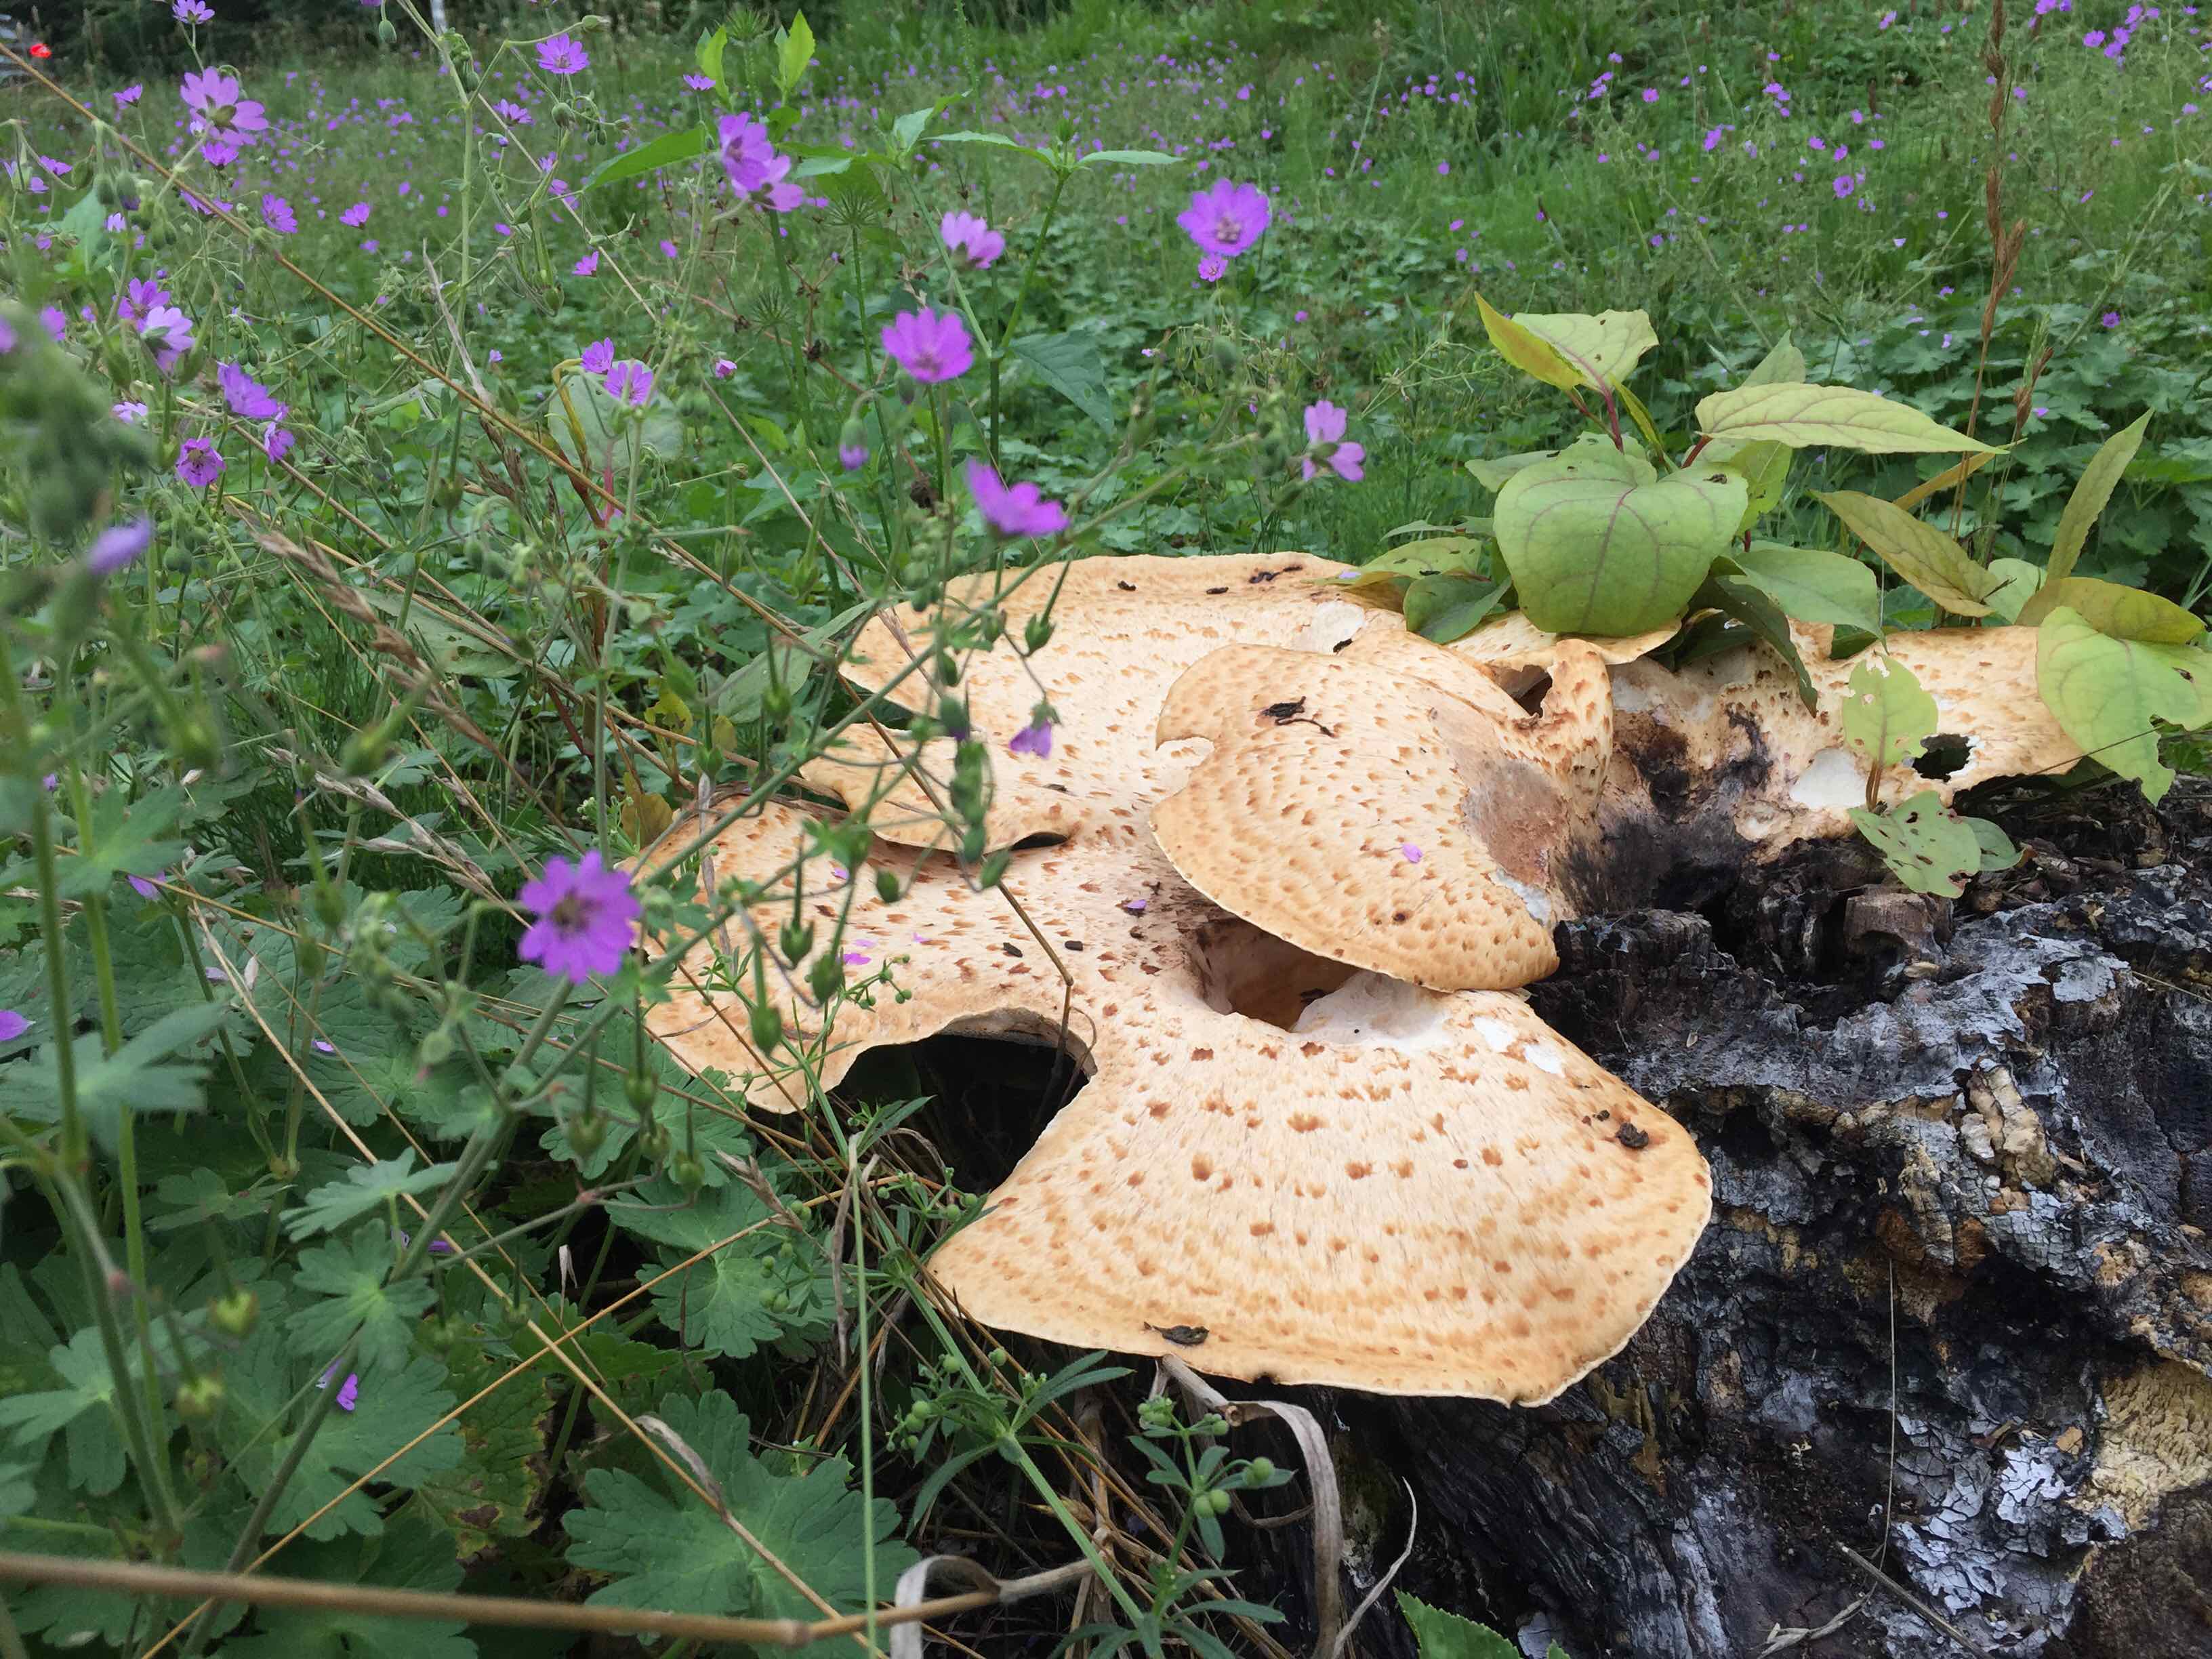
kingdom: Fungi
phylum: Basidiomycota
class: Agaricomycetes
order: Polyporales
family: Polyporaceae
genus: Cerioporus
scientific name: Cerioporus squamosus
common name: skællet stilkporesvamp
